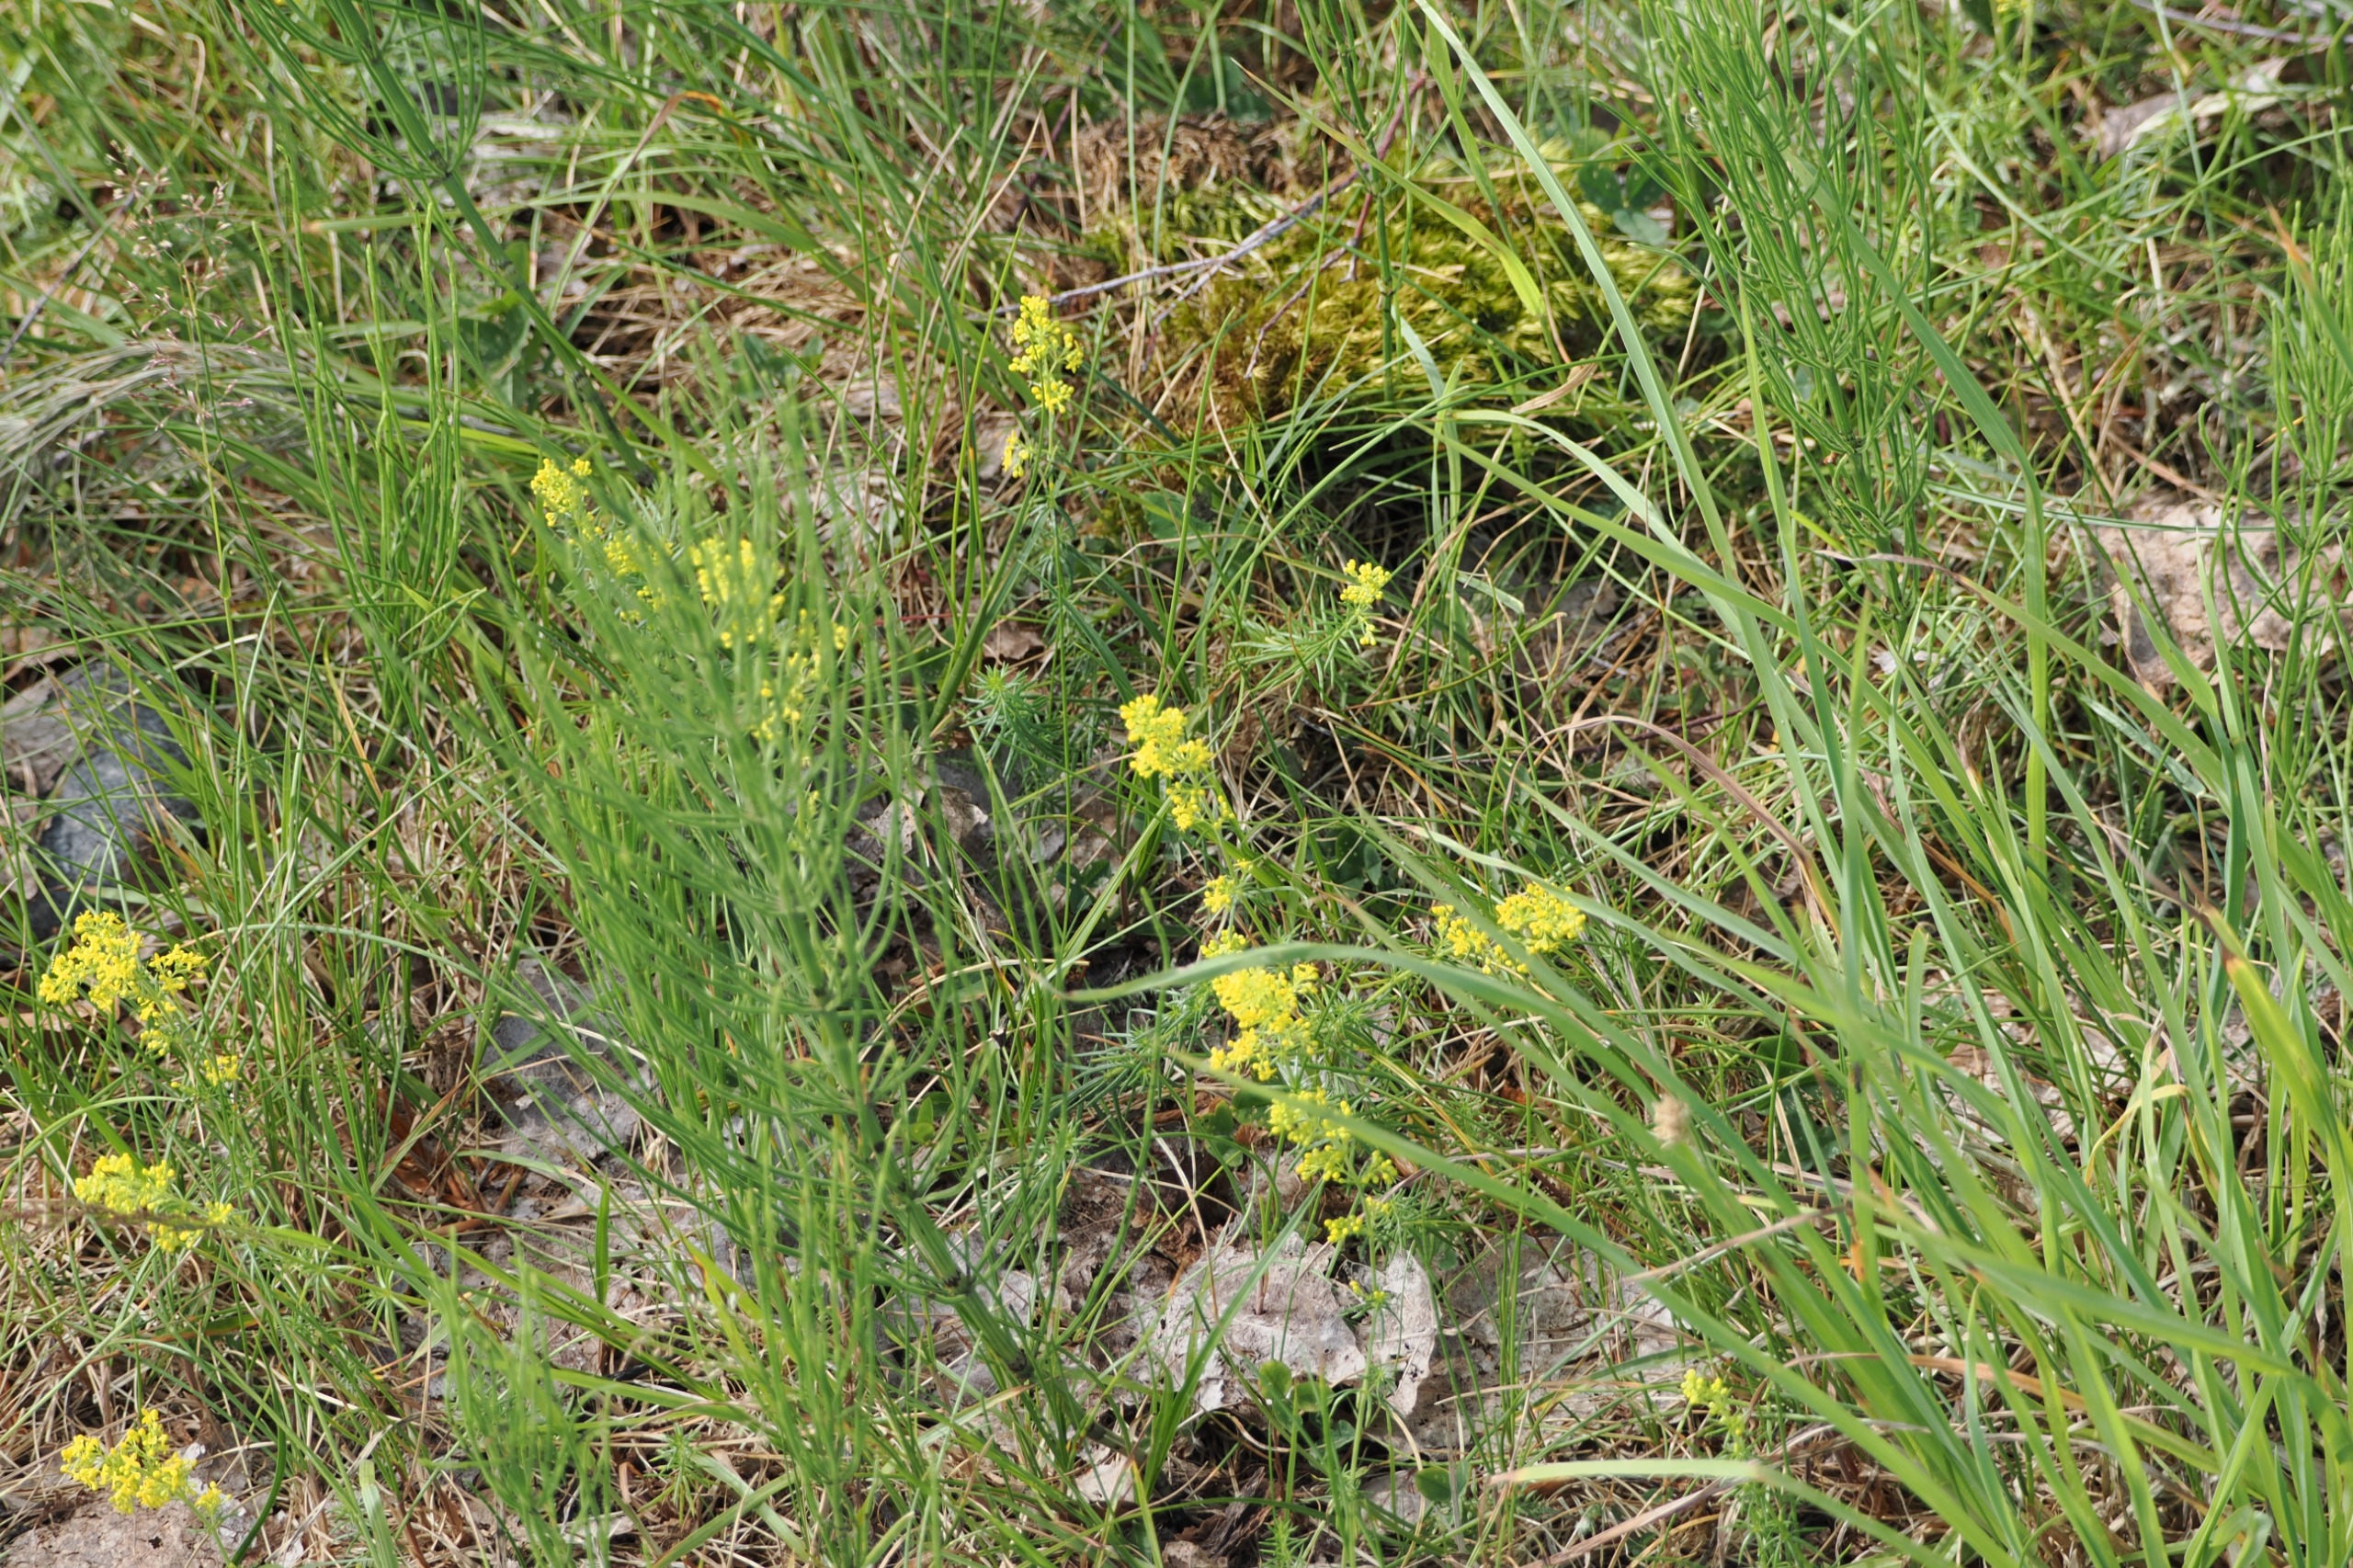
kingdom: Plantae
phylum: Tracheophyta
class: Magnoliopsida
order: Gentianales
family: Rubiaceae
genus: Galium
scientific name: Galium verum
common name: Gul snerre
